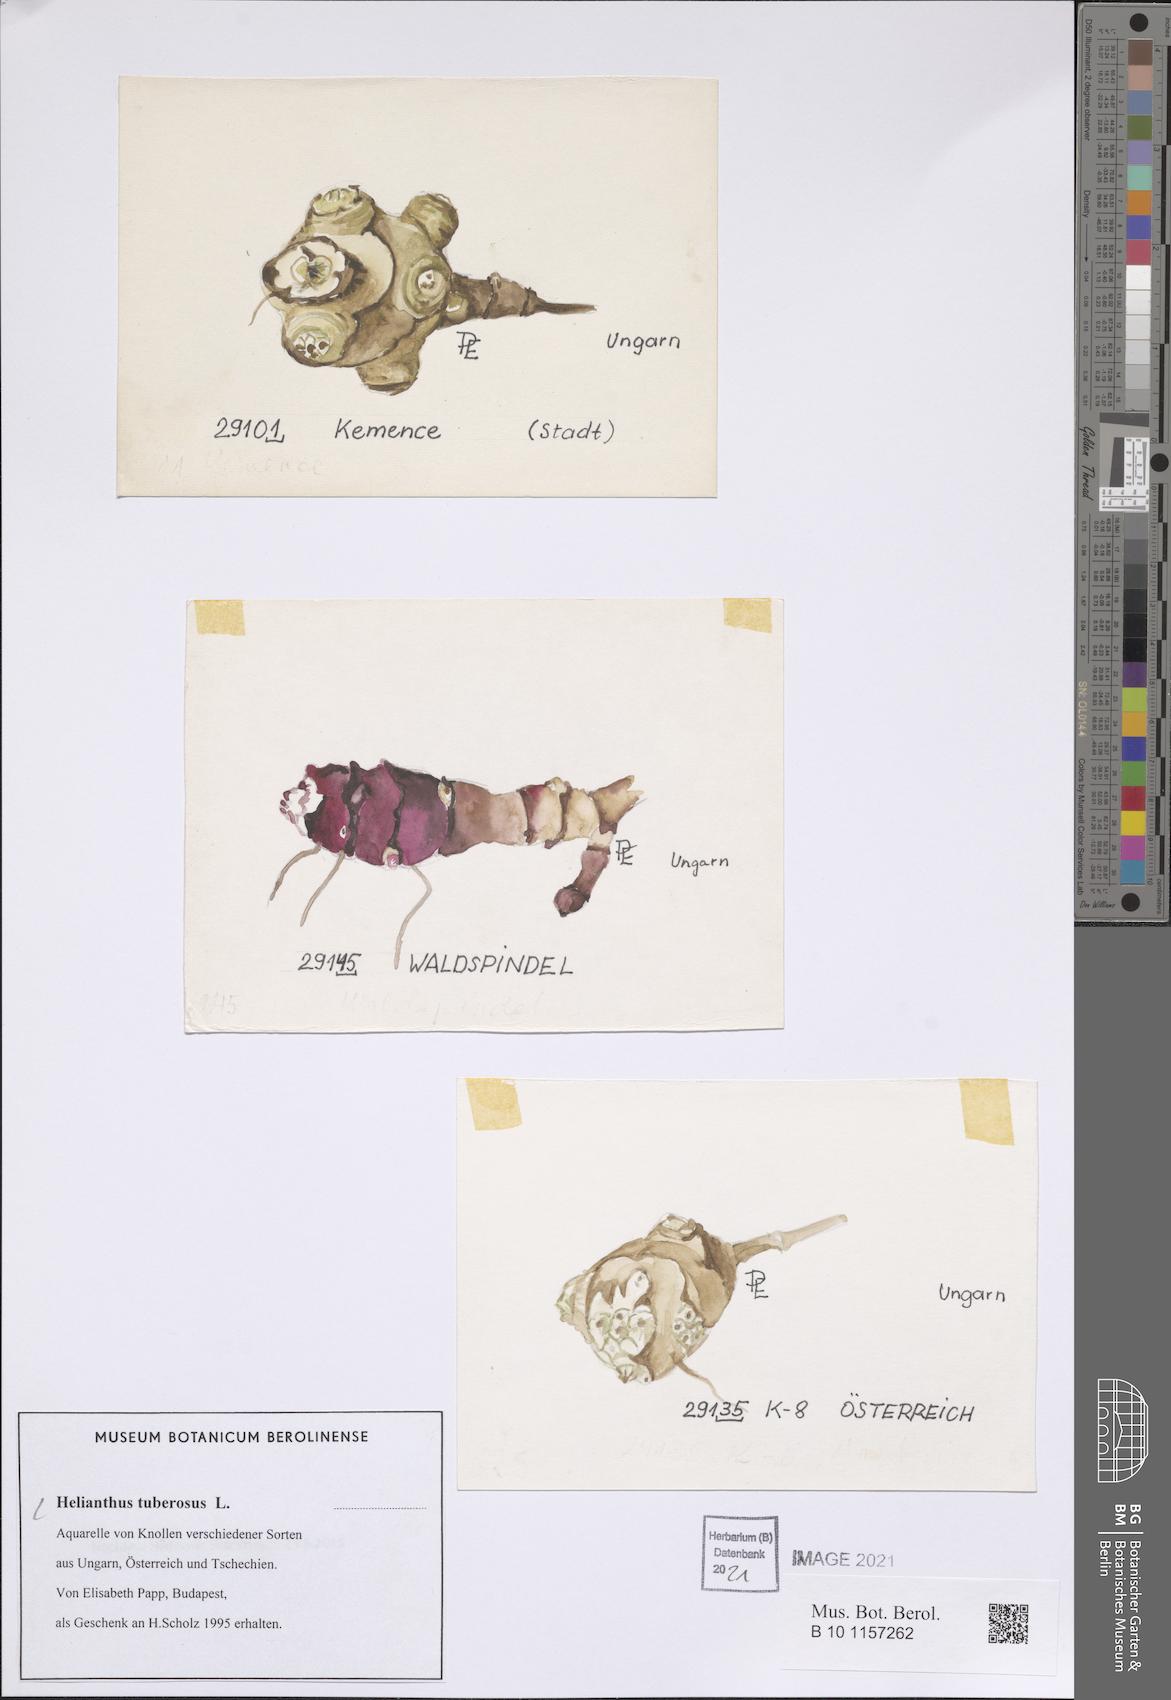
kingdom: Plantae
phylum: Tracheophyta
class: Magnoliopsida
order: Asterales
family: Asteraceae
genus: Helianthus
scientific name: Helianthus tuberosus
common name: Jerusalem artichoke
